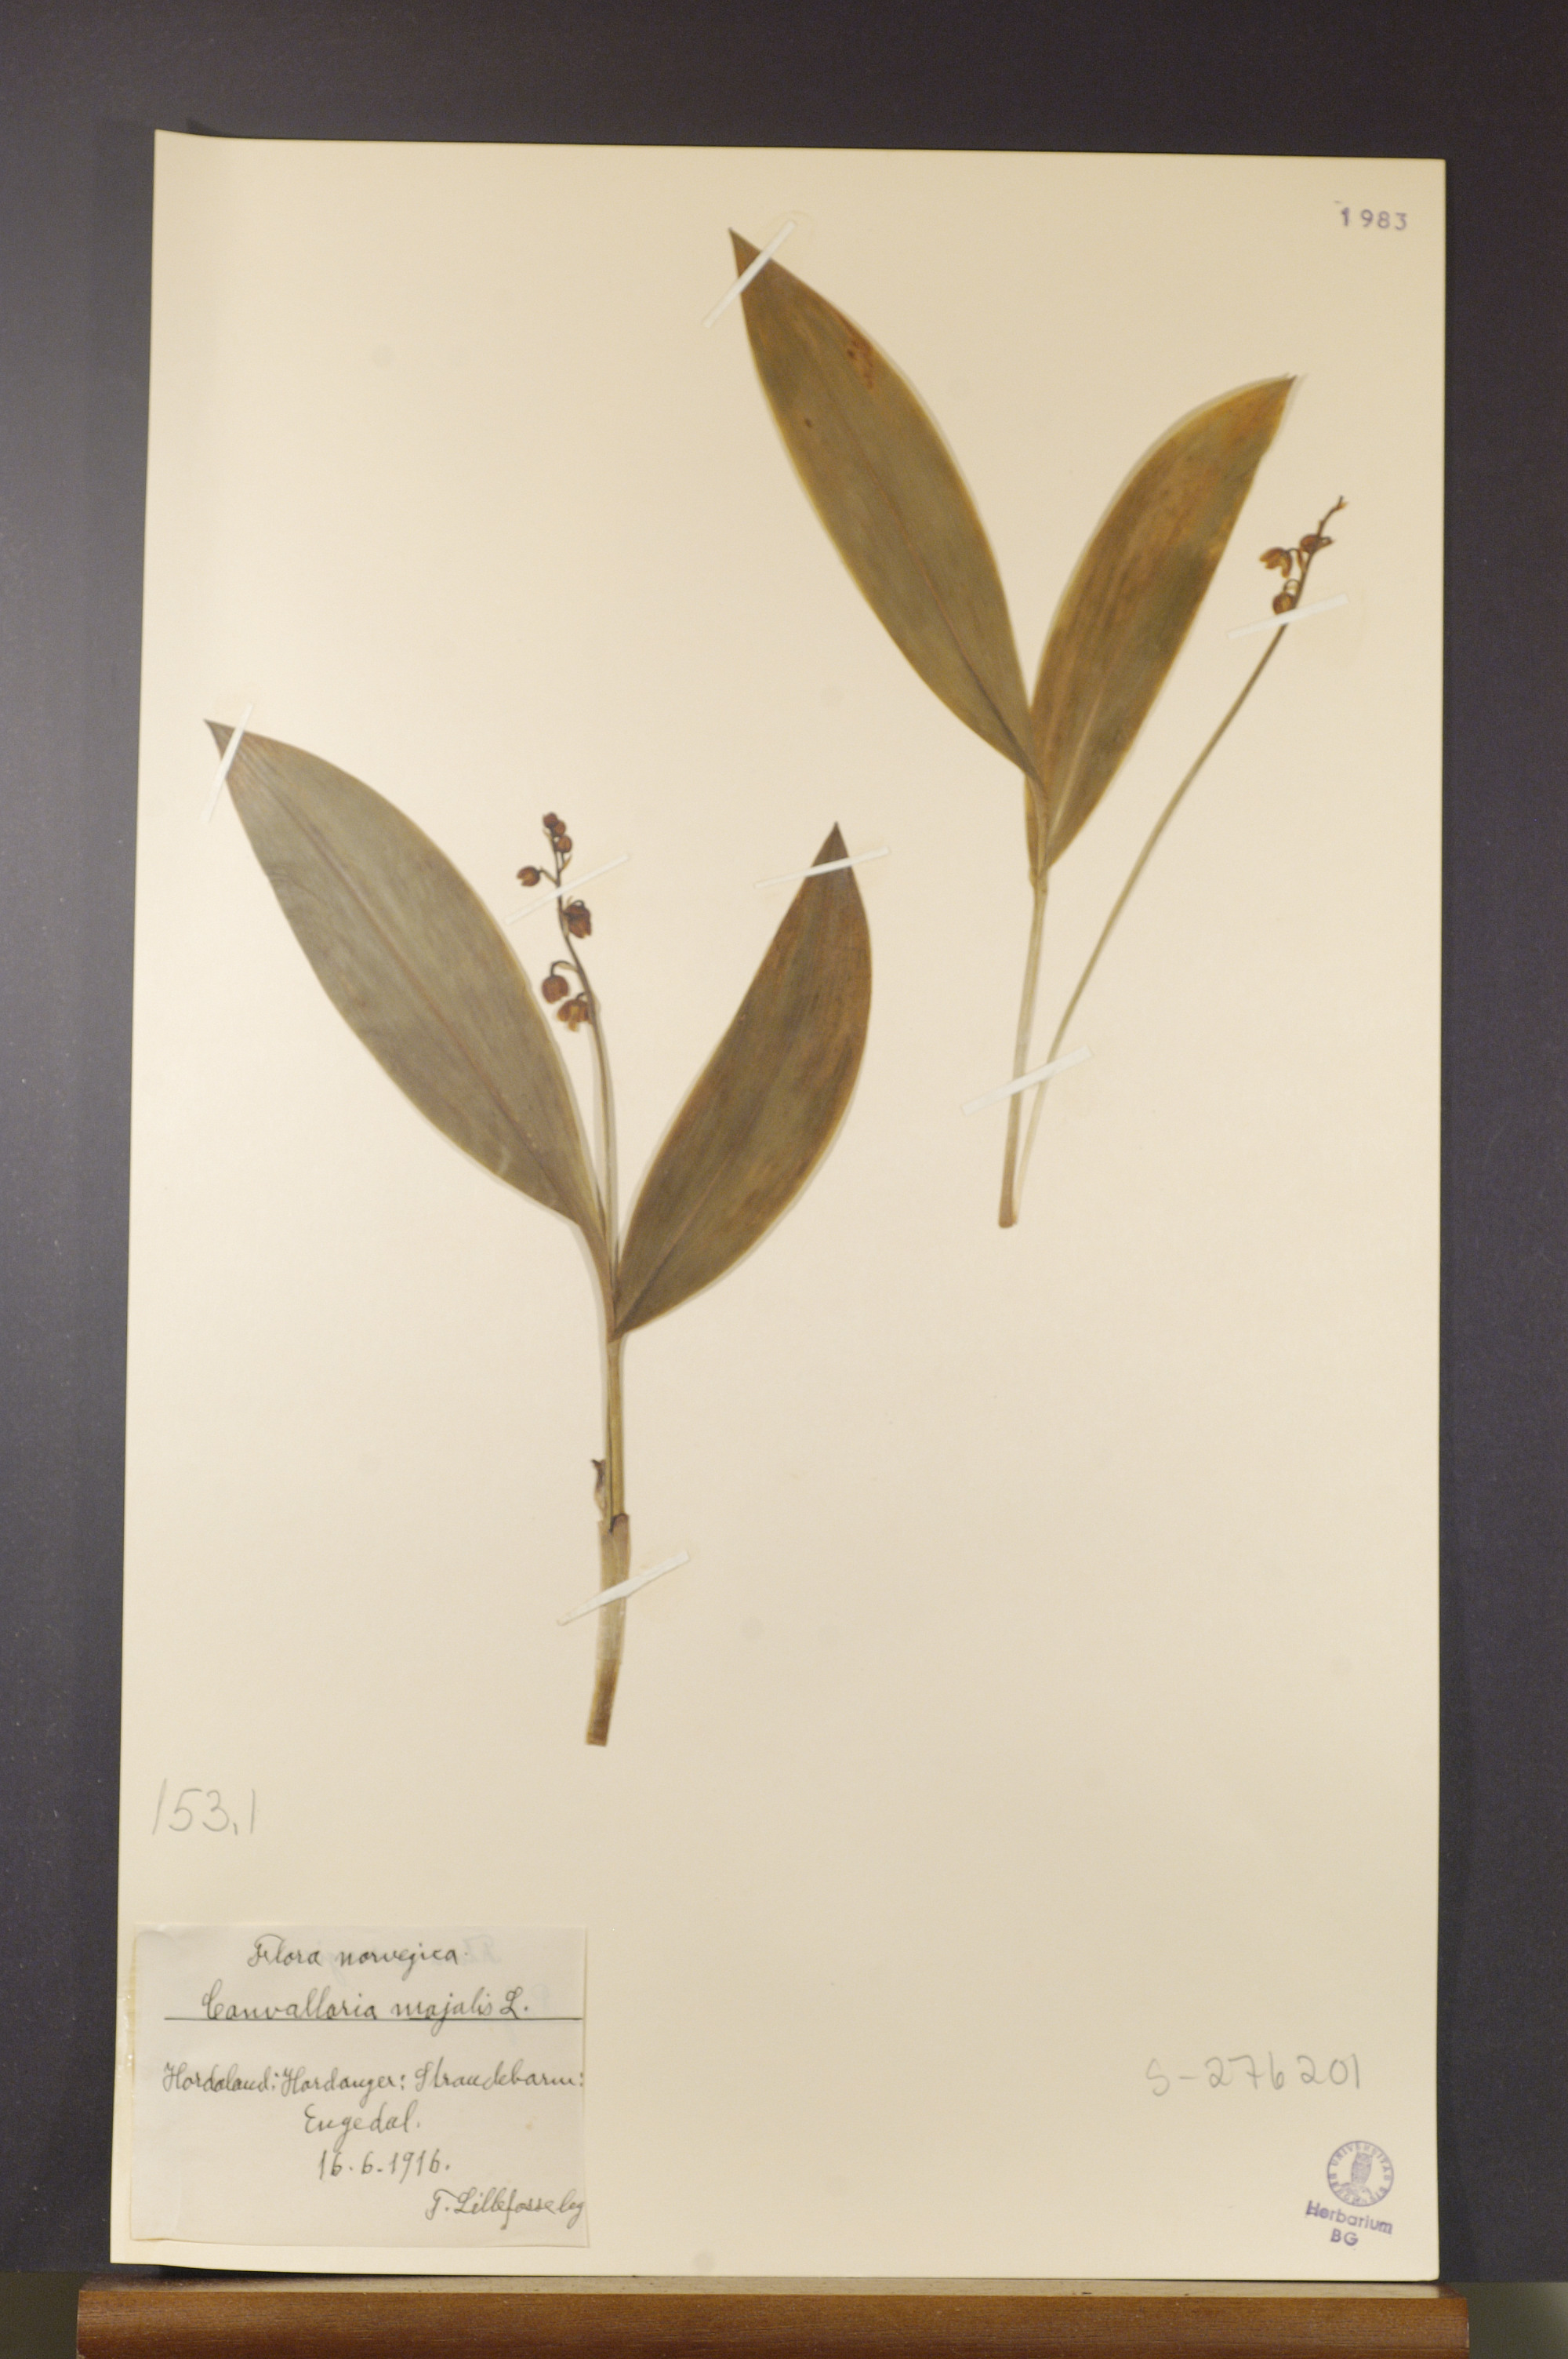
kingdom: Plantae
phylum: Tracheophyta
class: Liliopsida
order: Asparagales
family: Asparagaceae
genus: Convallaria
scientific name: Convallaria majalis
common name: Lily-of-the-valley
